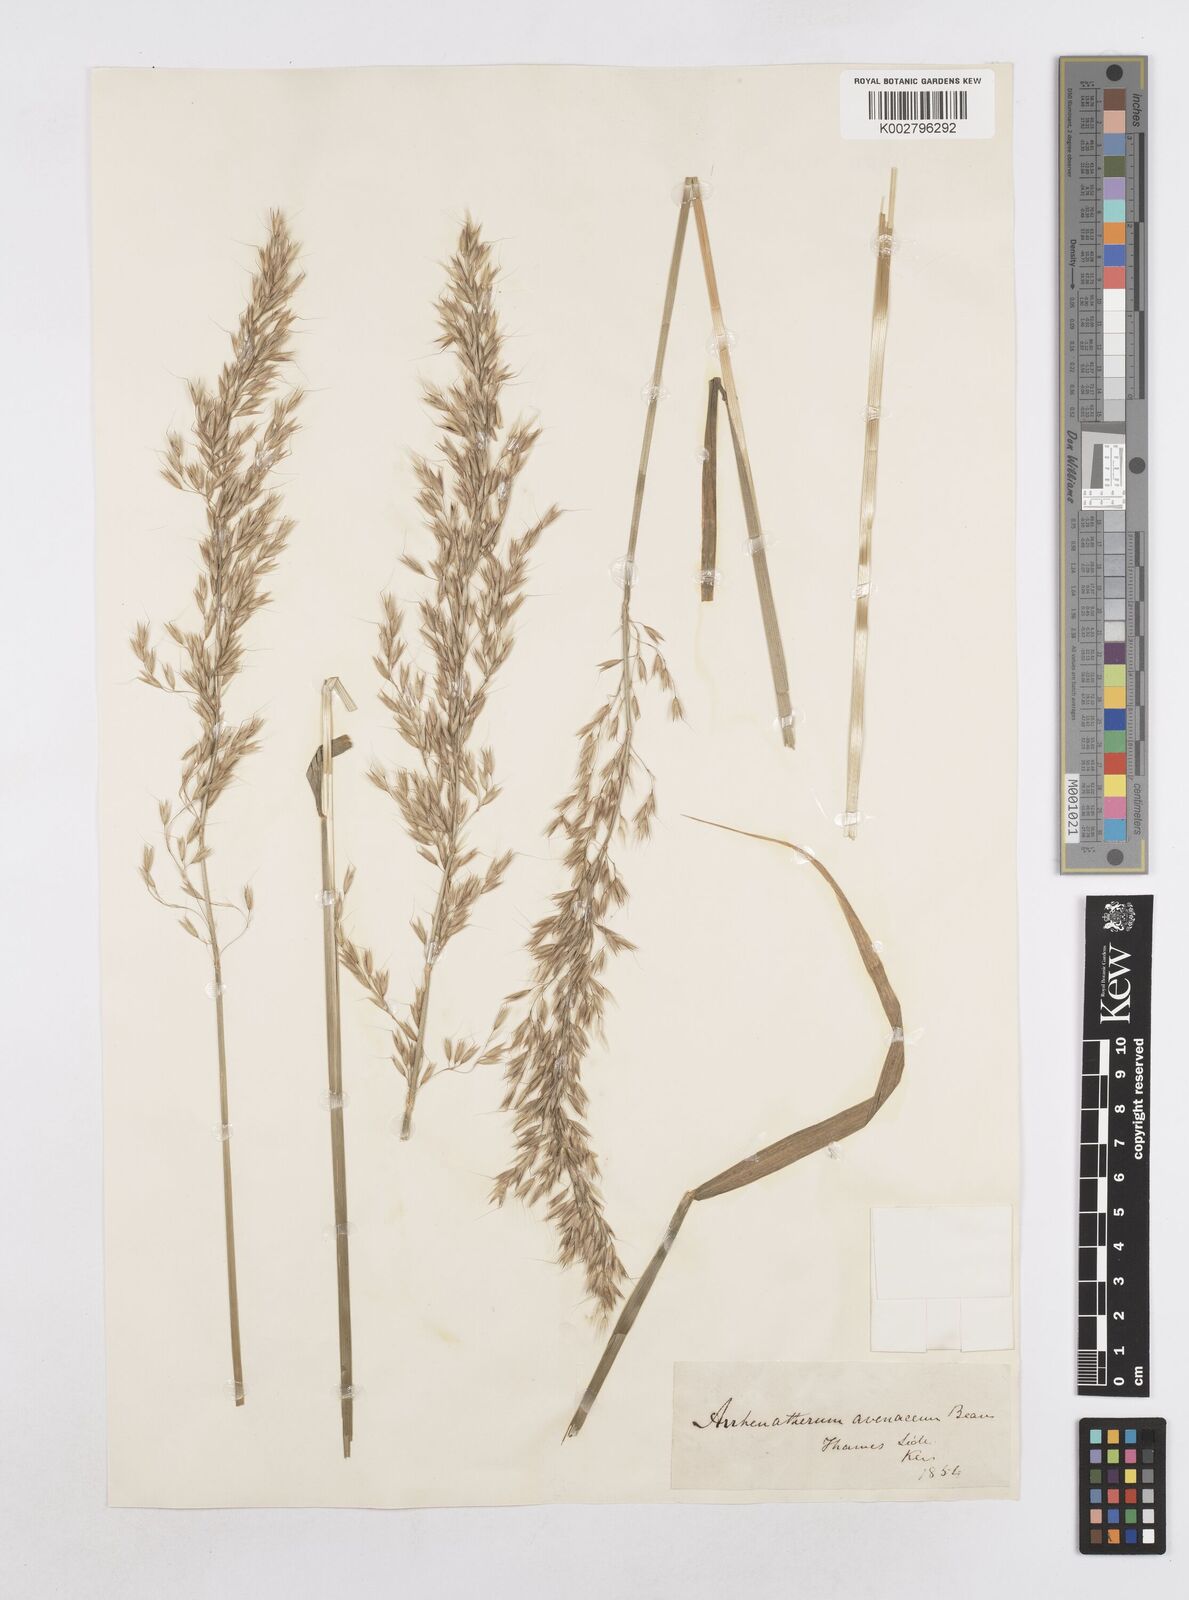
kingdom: Plantae
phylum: Tracheophyta
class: Liliopsida
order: Poales
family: Poaceae
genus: Arrhenatherum
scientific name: Arrhenatherum elatius
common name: Tall oatgrass
